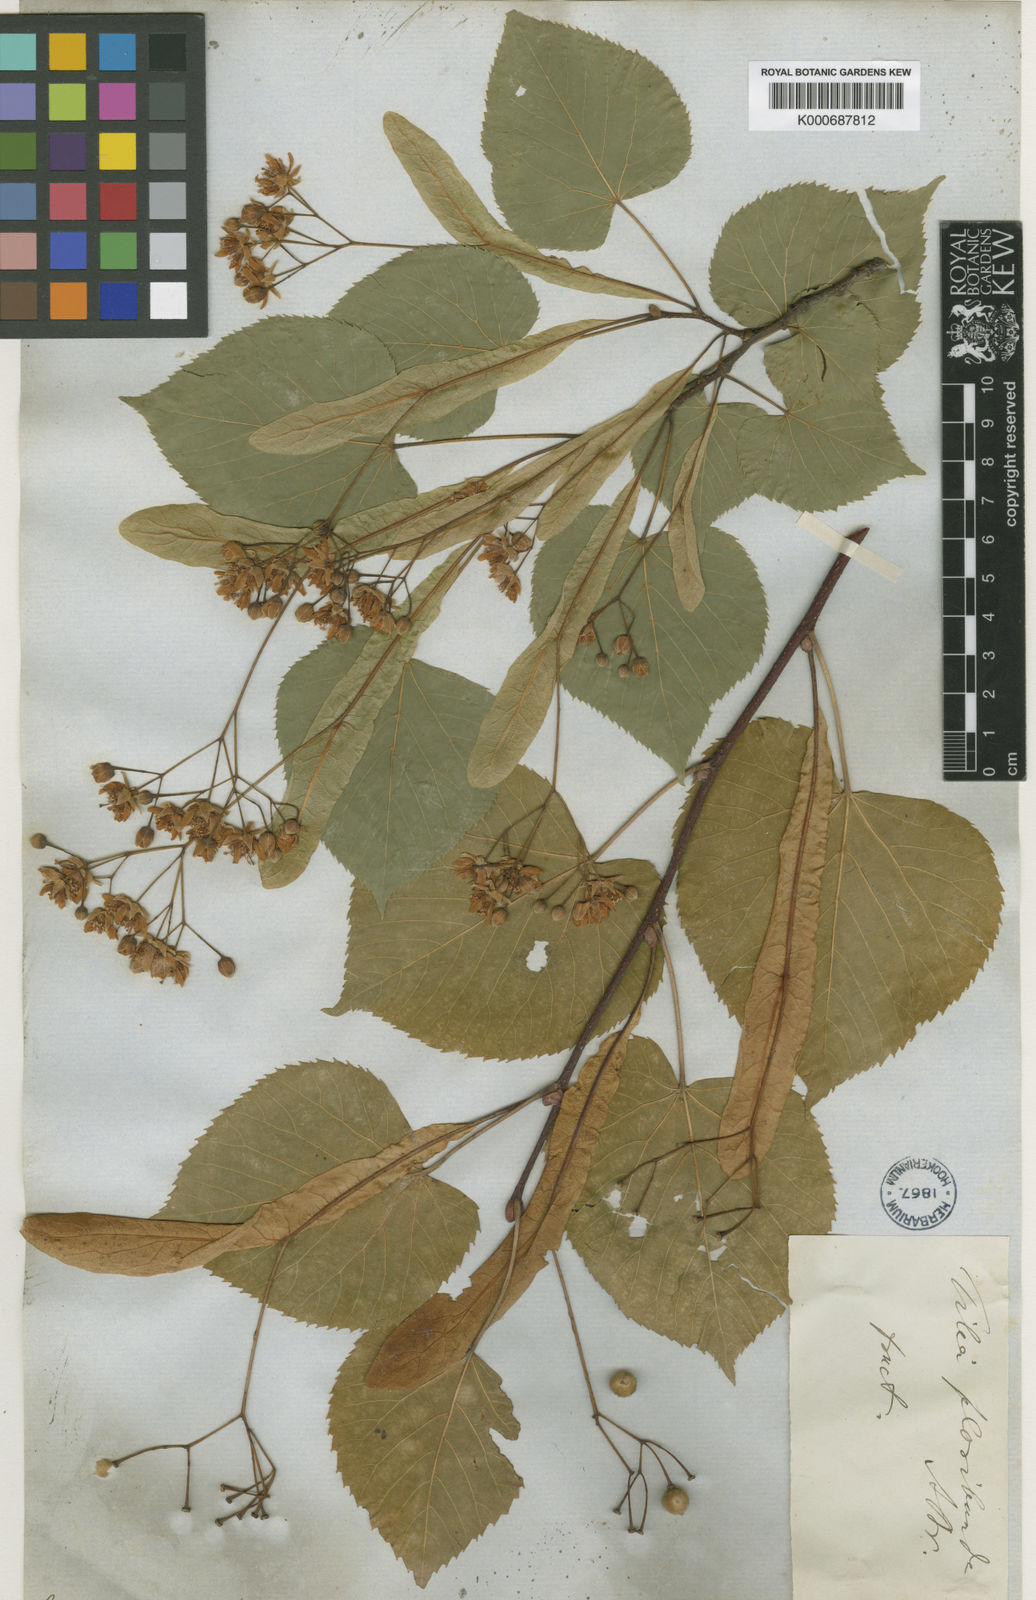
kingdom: Plantae
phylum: Tracheophyta
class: Magnoliopsida
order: Malvales
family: Malvaceae
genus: Tilia
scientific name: Tilia flavescens
